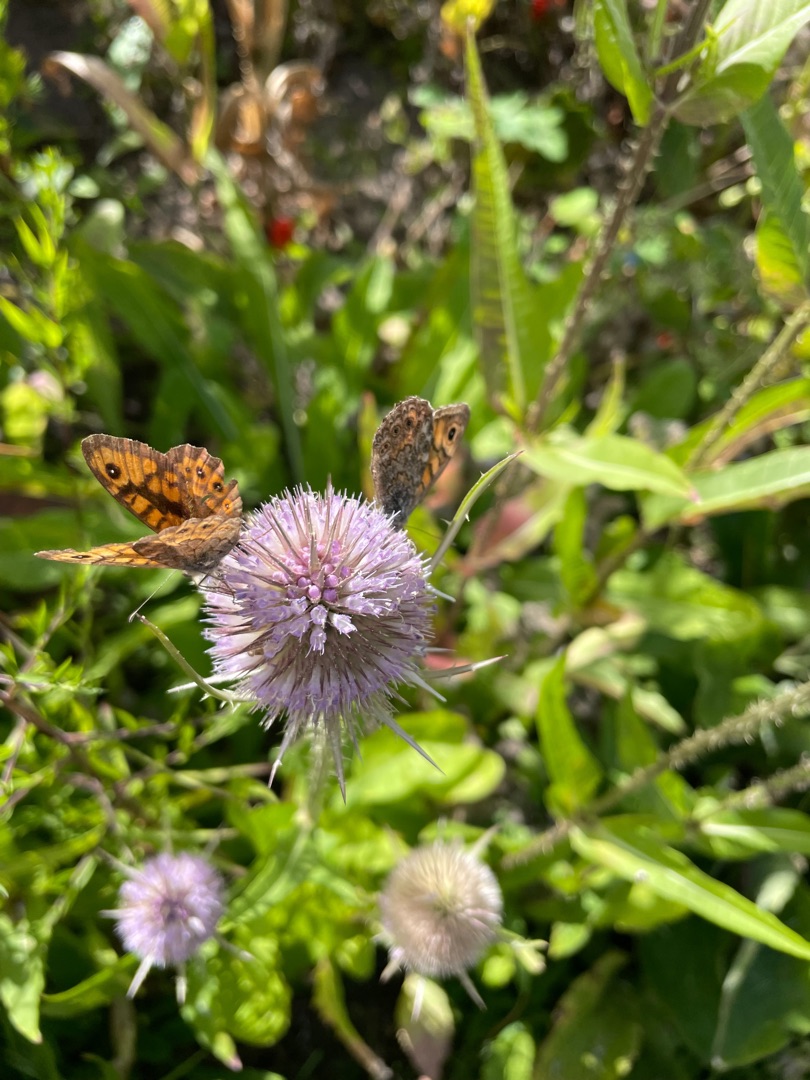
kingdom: Animalia
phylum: Arthropoda
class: Insecta
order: Lepidoptera
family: Nymphalidae
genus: Pararge
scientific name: Pararge Lasiommata megera
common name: Vejrandøje
